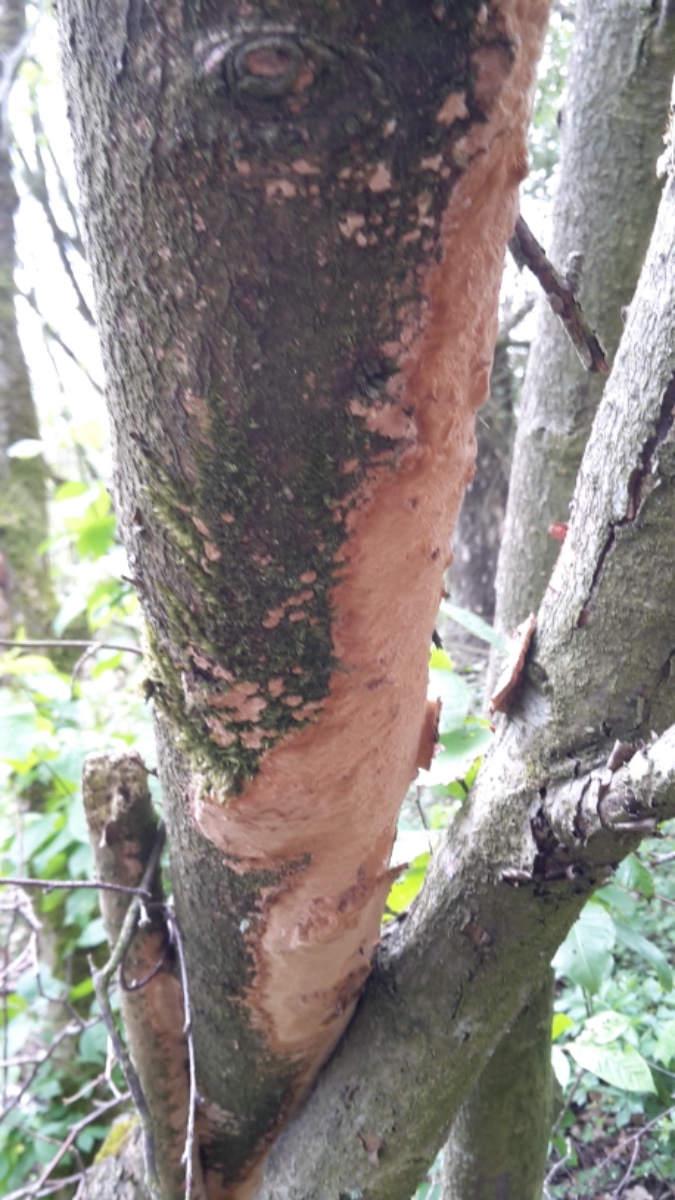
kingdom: Fungi
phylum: Basidiomycota
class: Agaricomycetes
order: Hymenochaetales
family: Hymenochaetaceae
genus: Fuscoporia
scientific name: Fuscoporia ferrea
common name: skorpe-ildporesvamp
